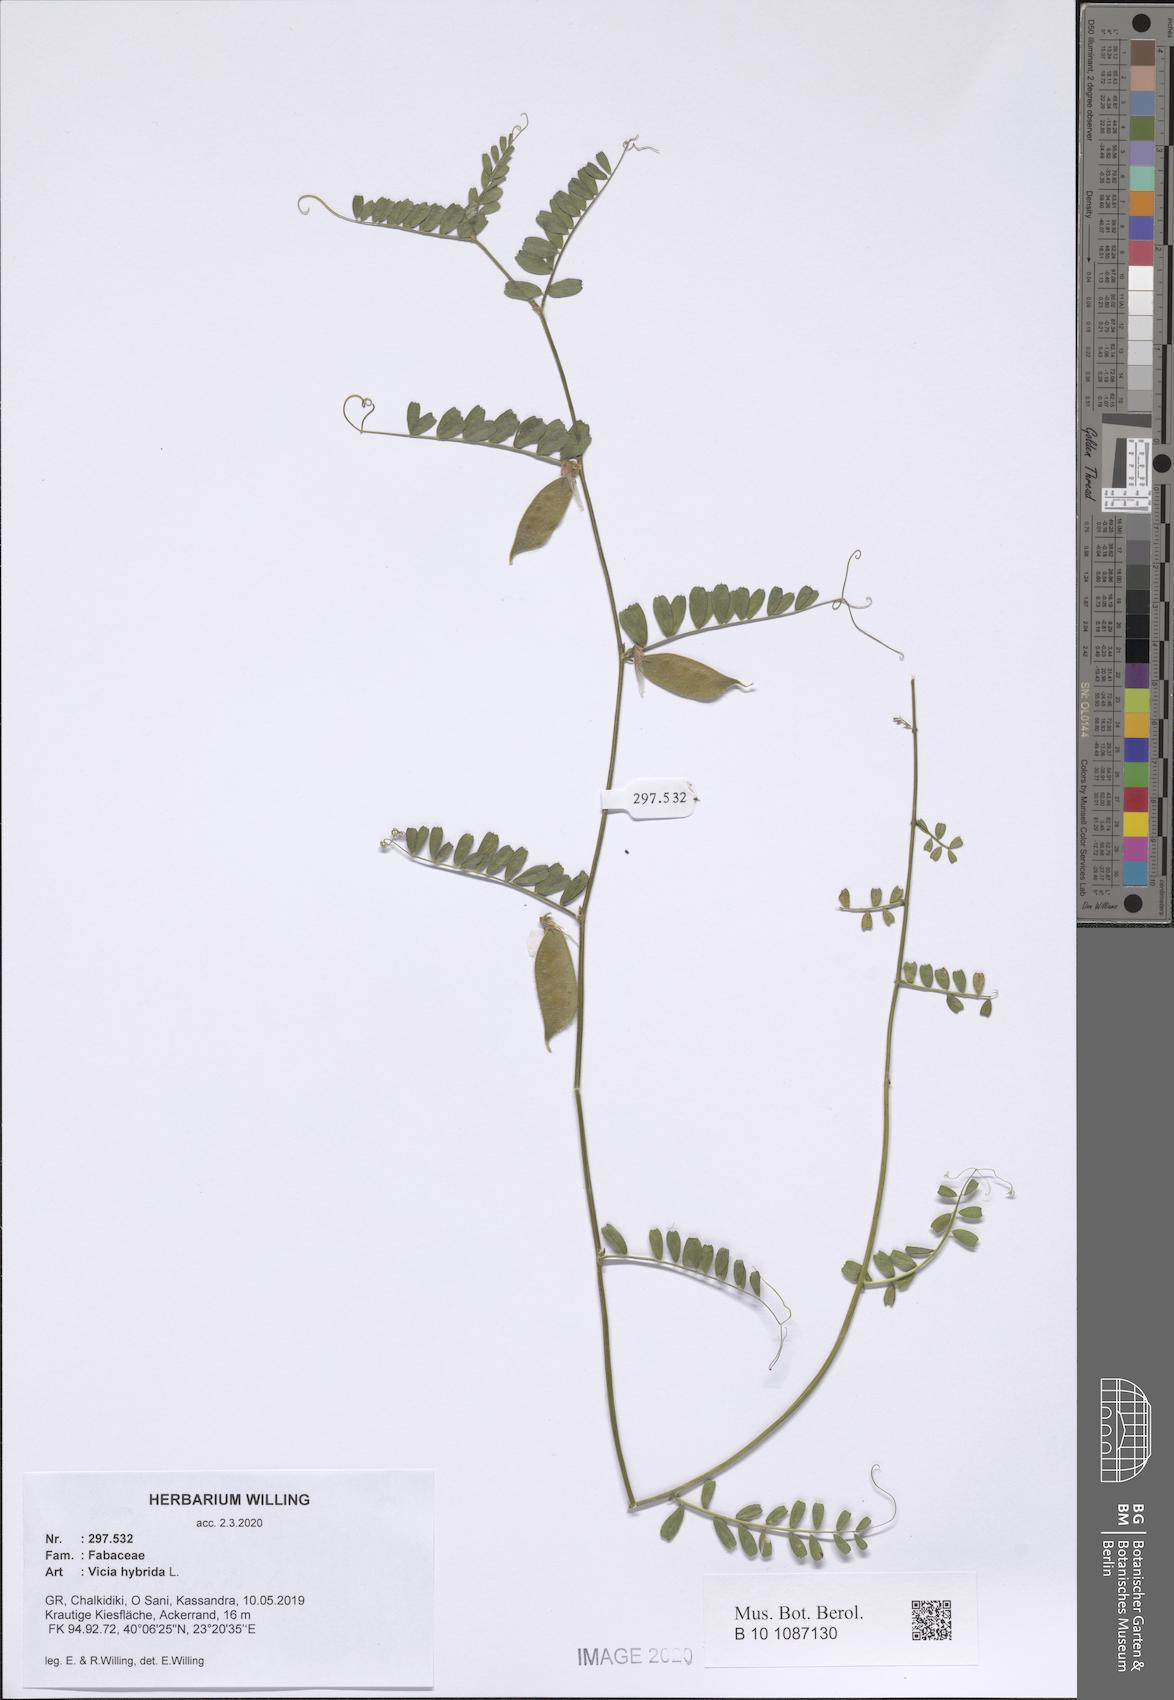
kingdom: Plantae
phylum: Tracheophyta
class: Magnoliopsida
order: Fabales
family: Fabaceae
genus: Vicia
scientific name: Vicia hybrida
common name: Hairy yellow vetch
